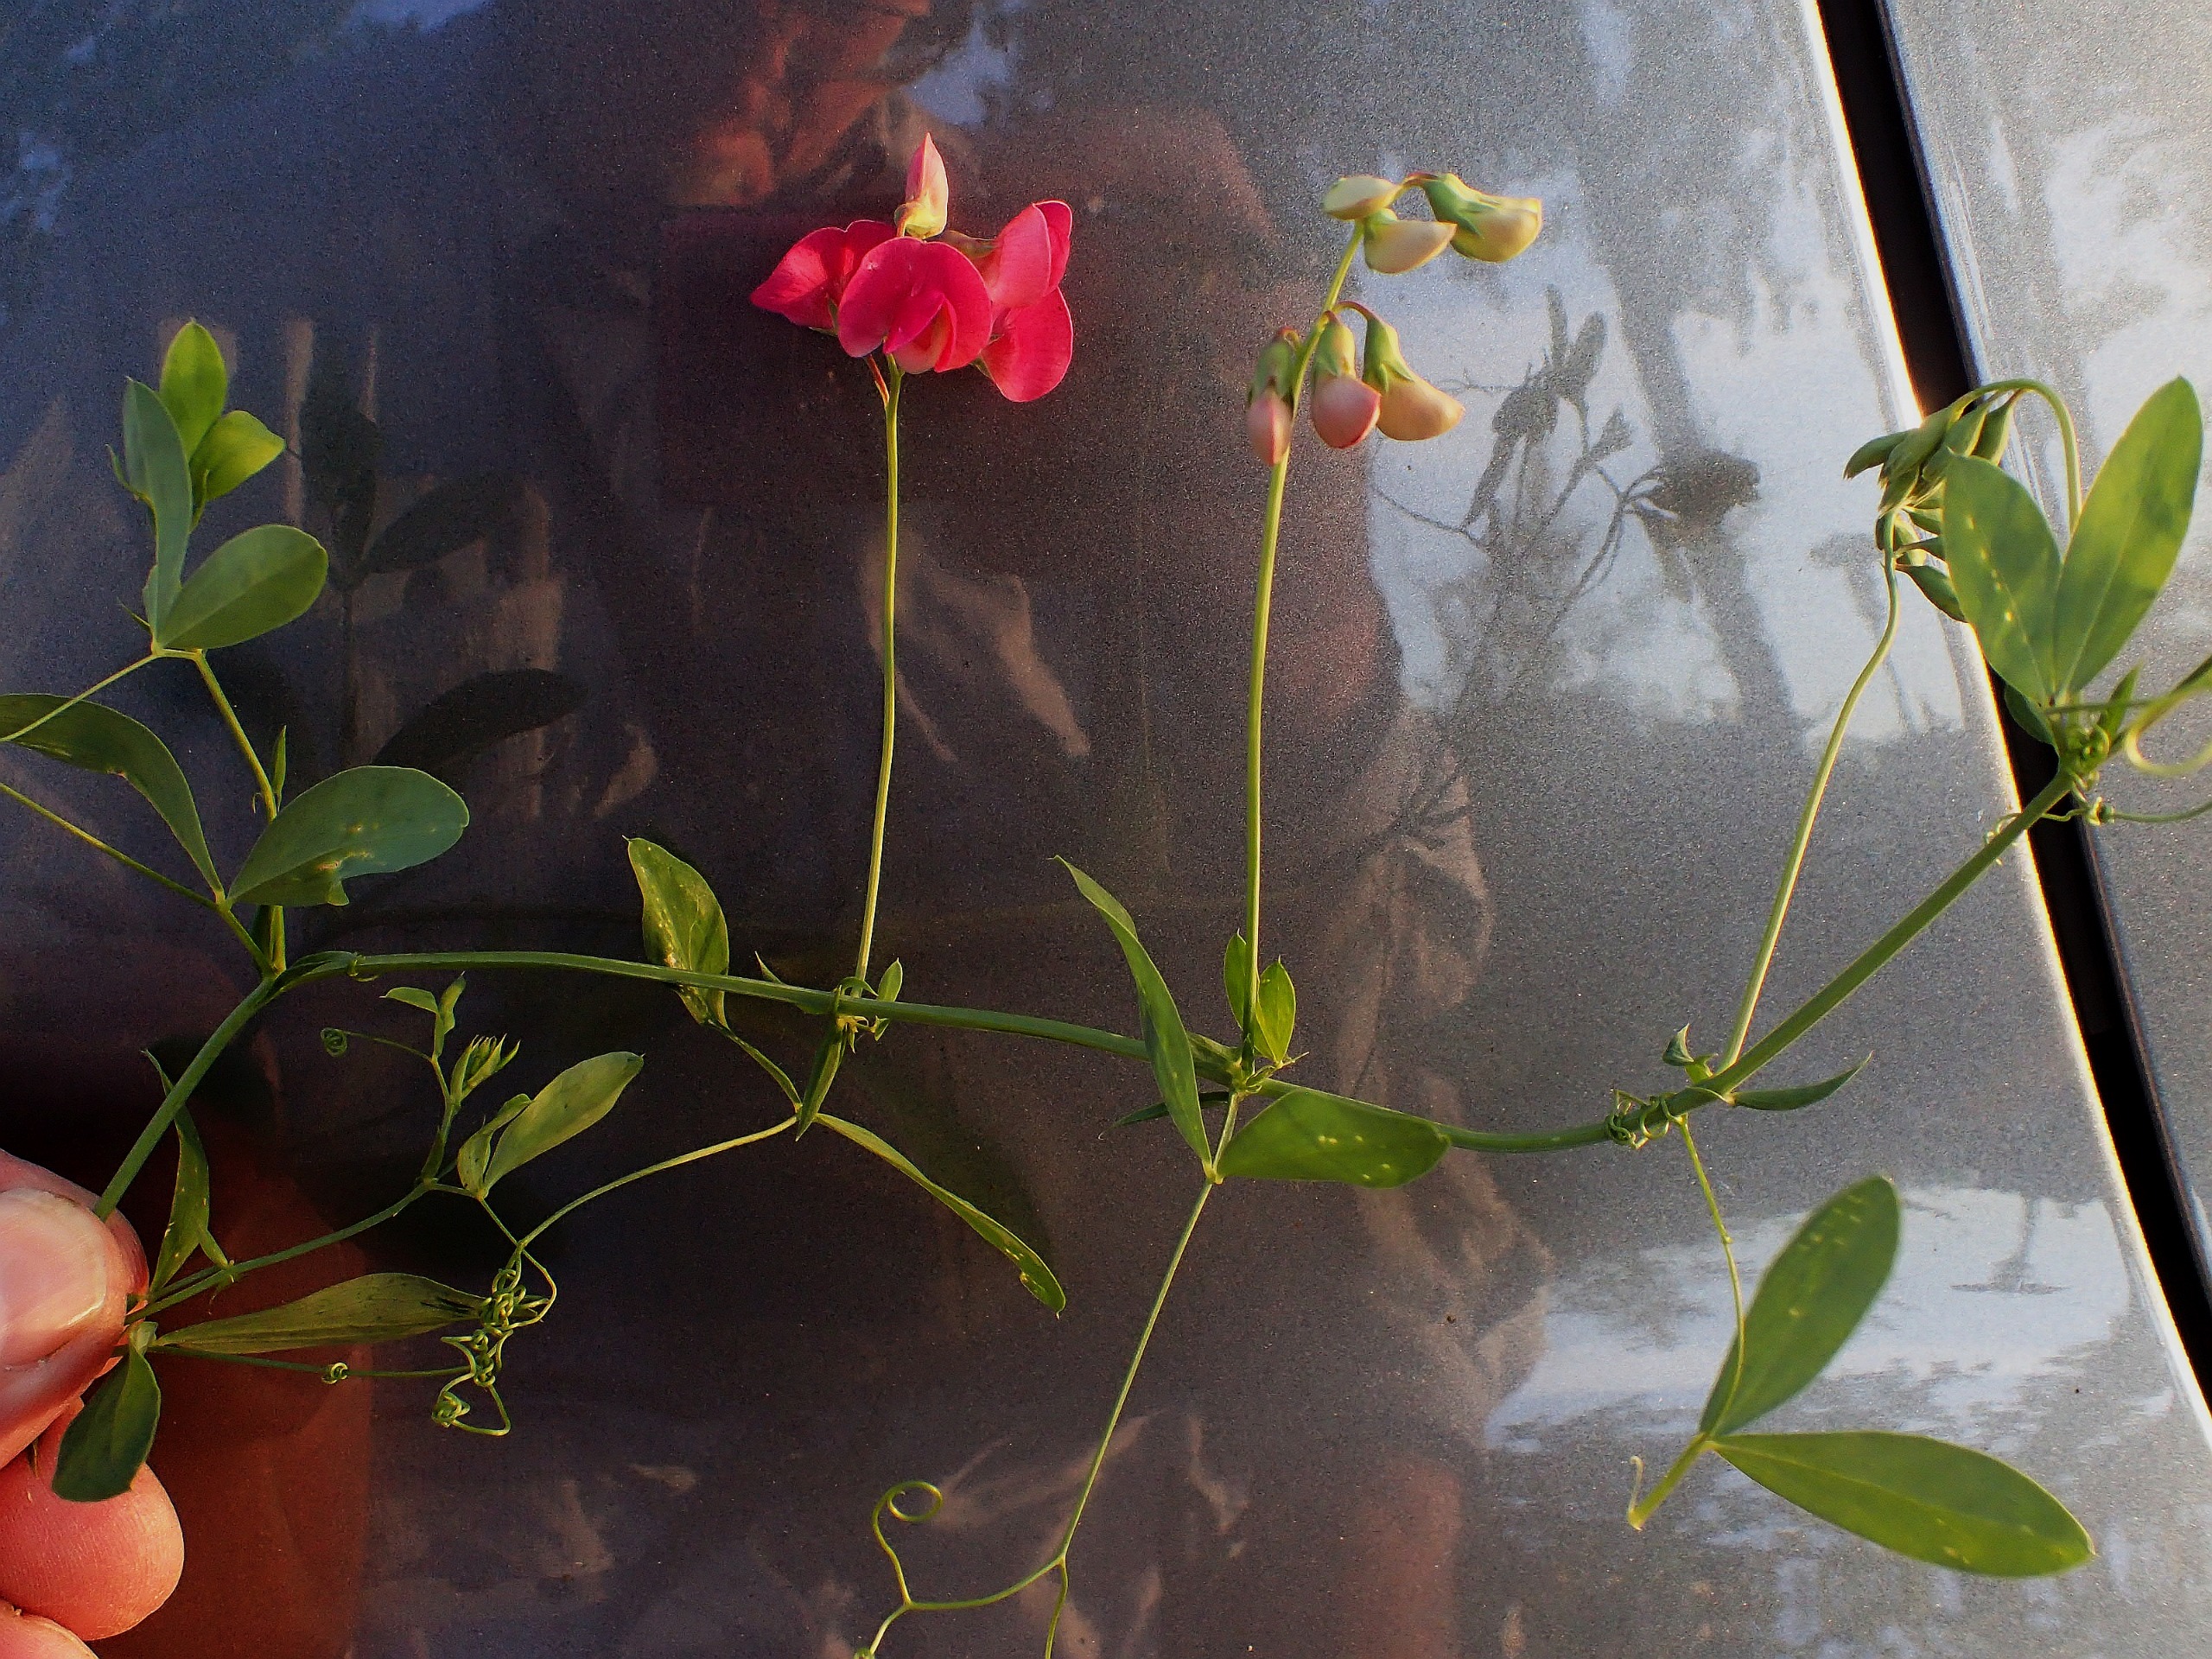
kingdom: Plantae
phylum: Tracheophyta
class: Magnoliopsida
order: Fabales
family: Fabaceae
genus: Lathyrus
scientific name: Lathyrus tuberosus
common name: Knold-fladbælg
